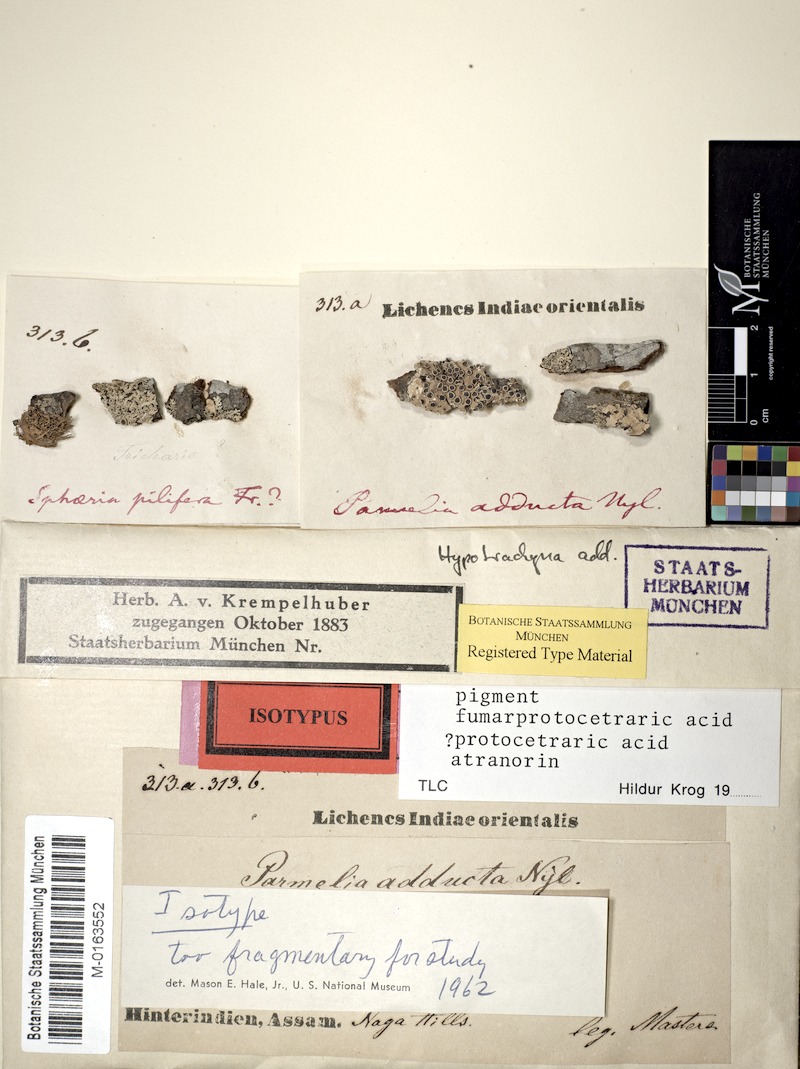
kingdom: Fungi
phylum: Ascomycota
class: Lecanoromycetes
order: Lecanorales
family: Parmeliaceae
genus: Remototrachyna
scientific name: Remototrachyna
